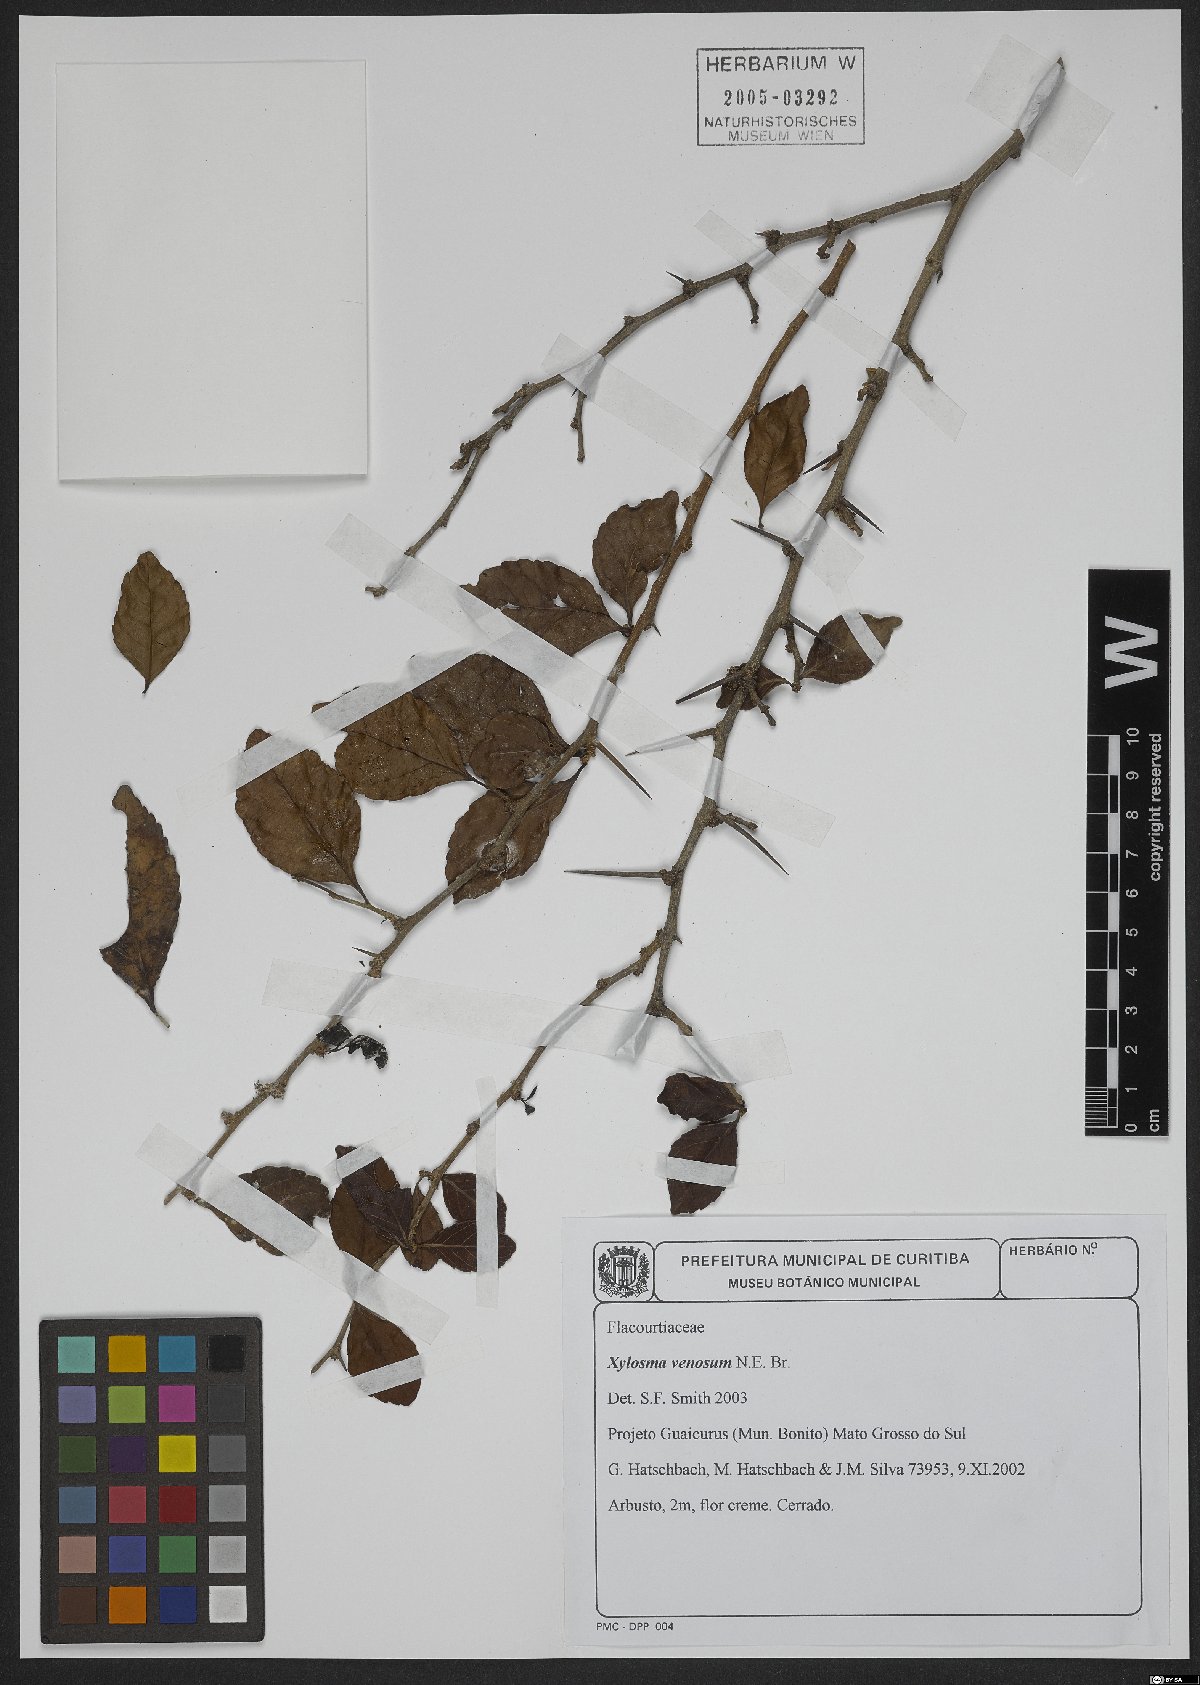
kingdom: Plantae
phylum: Tracheophyta
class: Magnoliopsida
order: Malpighiales
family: Salicaceae
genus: Xylosma
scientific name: Xylosma venosa
